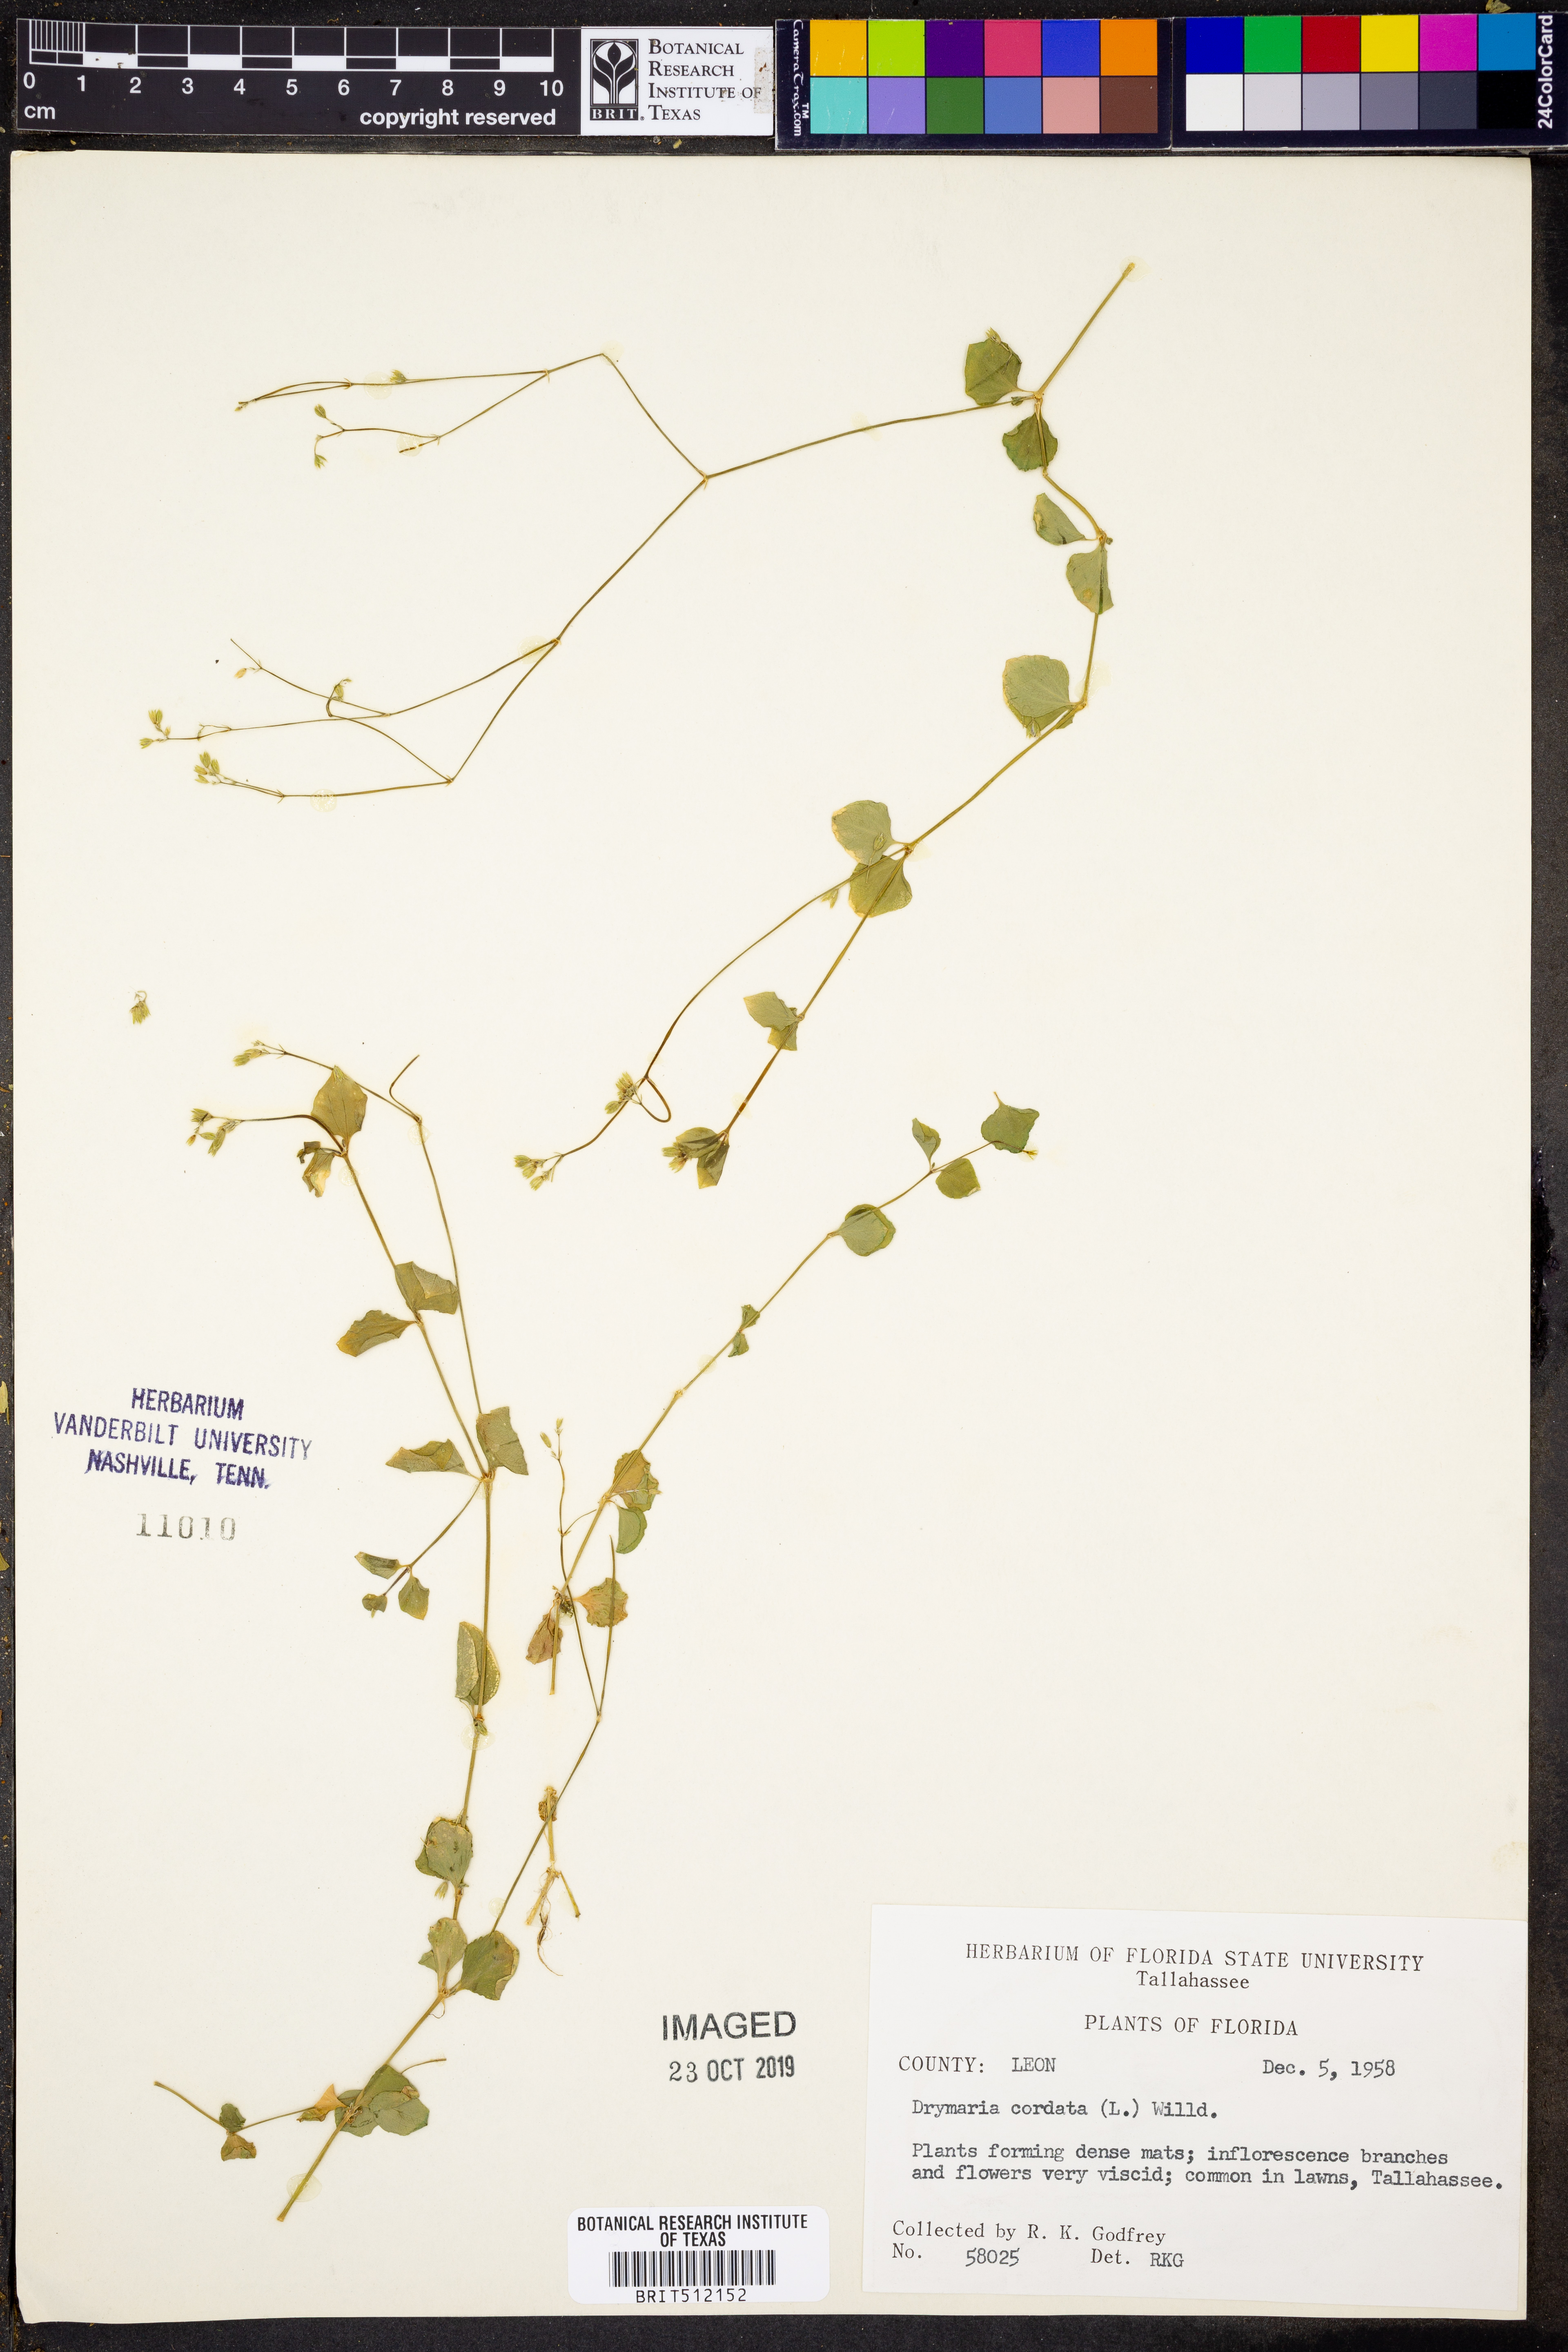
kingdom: Plantae
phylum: Tracheophyta
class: Magnoliopsida
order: Caryophyllales
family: Caryophyllaceae
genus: Drymaria
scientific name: Drymaria cordata
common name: Whitesnow
